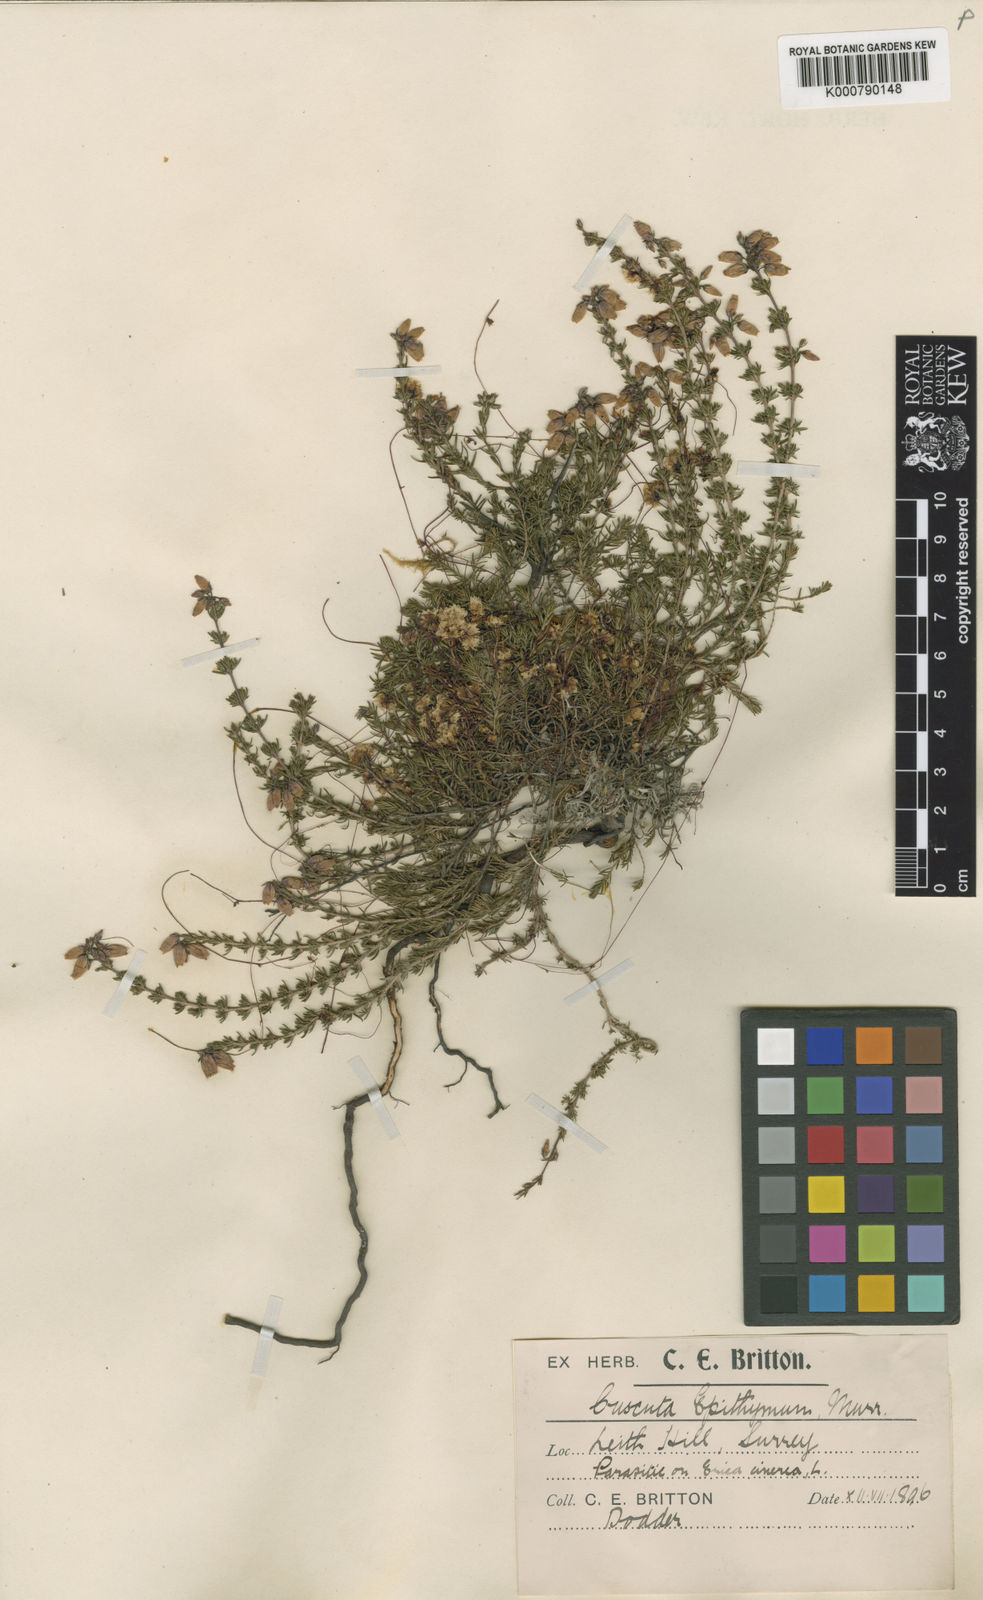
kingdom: Plantae
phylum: Tracheophyta
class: Magnoliopsida
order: Solanales
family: Convolvulaceae
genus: Cuscuta
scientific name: Cuscuta epithymum
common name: Clover dodder
